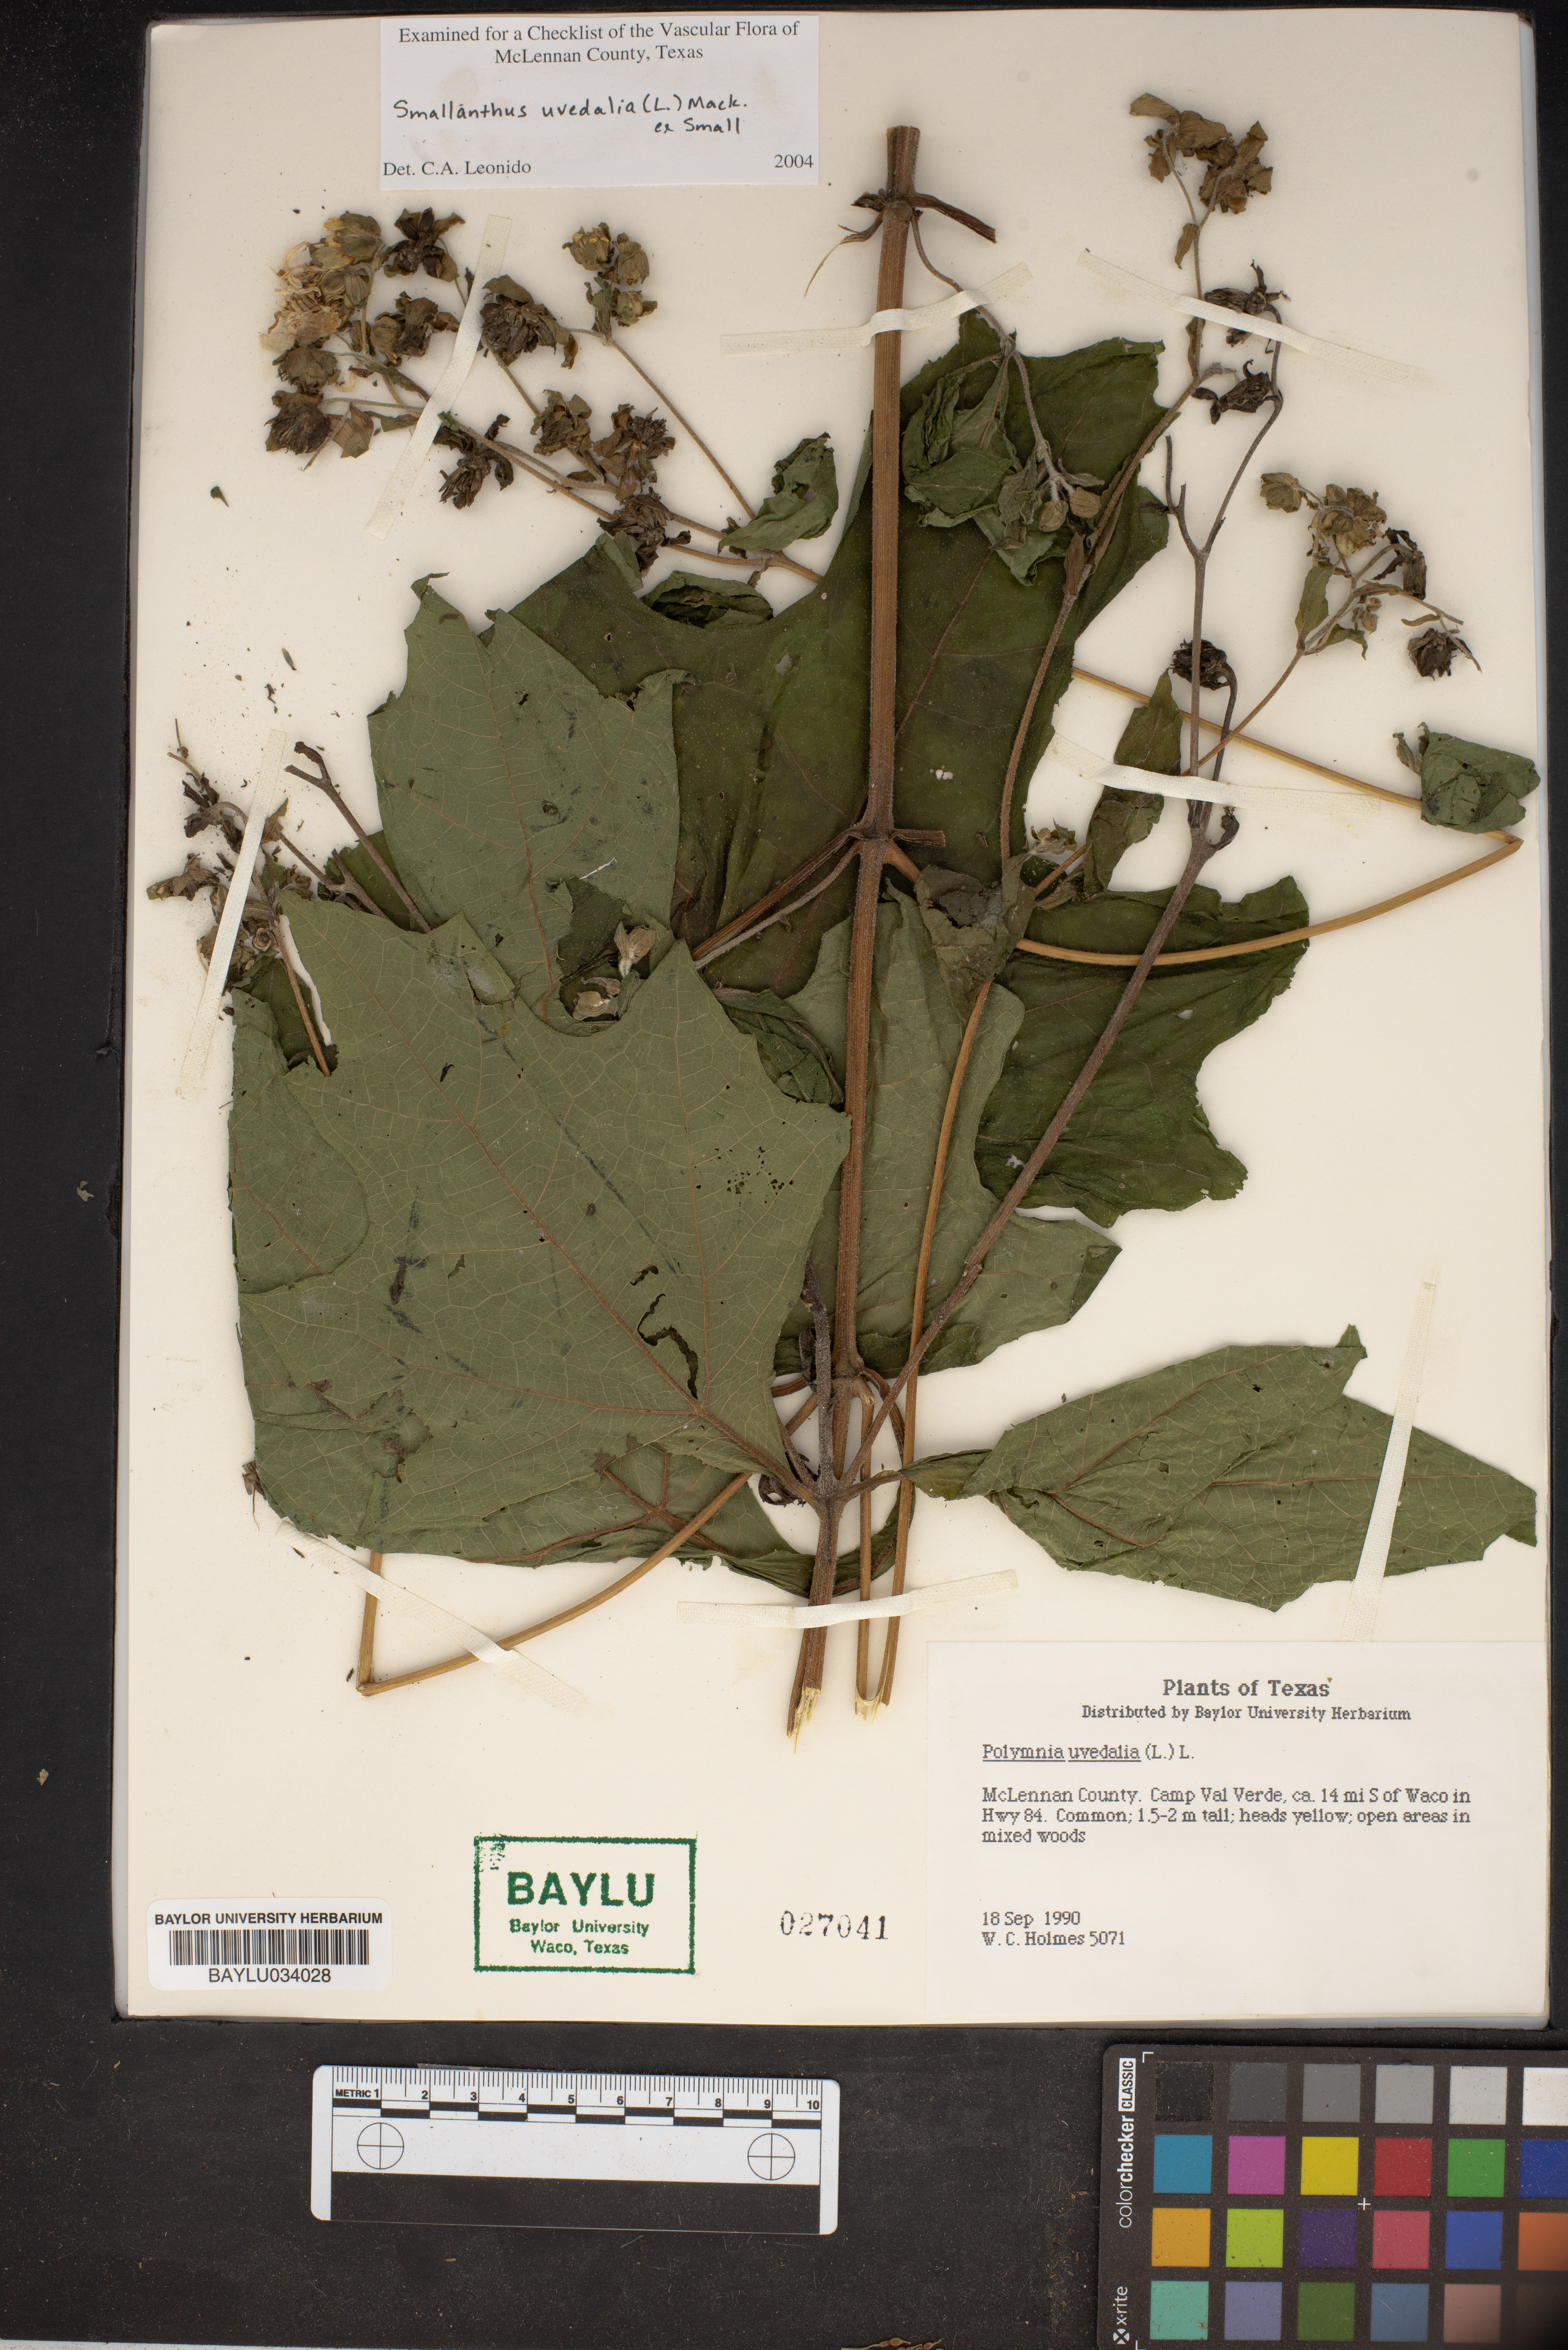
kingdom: Plantae
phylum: Tracheophyta
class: Magnoliopsida
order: Asterales
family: Asteraceae
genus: Smallanthus
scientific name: Smallanthus uvedalia
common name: Bear's-foot
